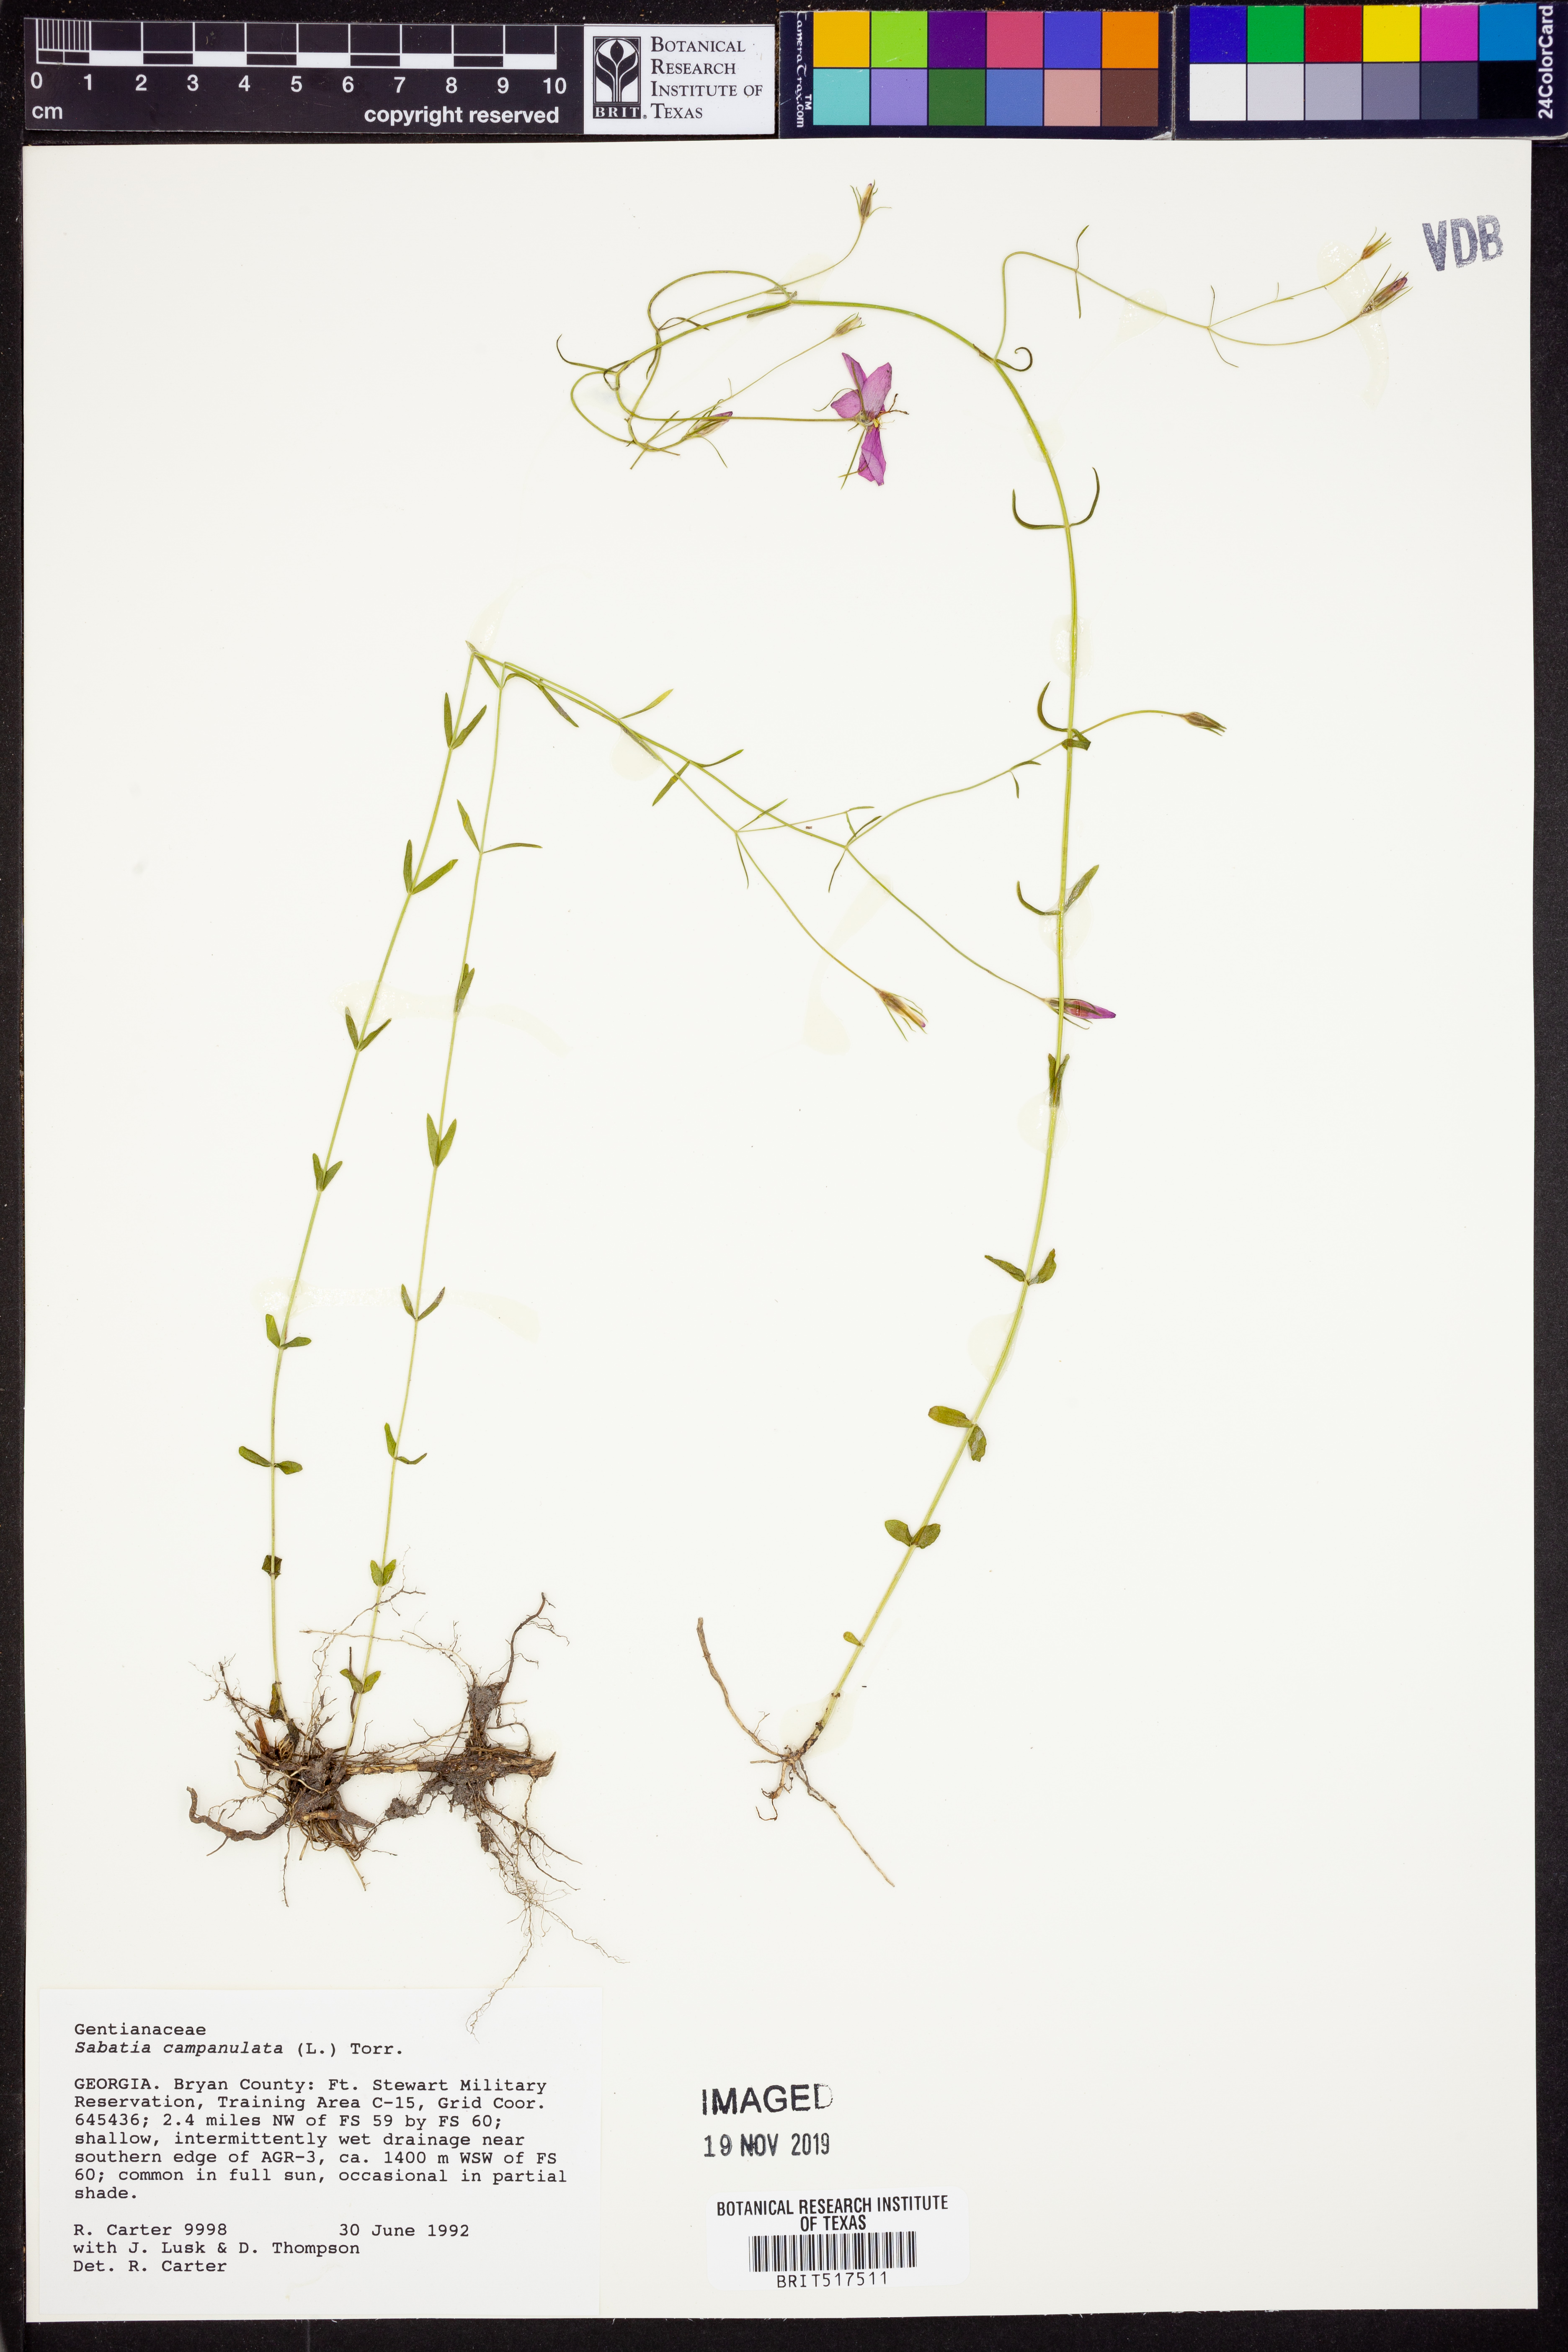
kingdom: Plantae
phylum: Tracheophyta
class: Magnoliopsida
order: Gentianales
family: Gentianaceae
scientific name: Gentianaceae
